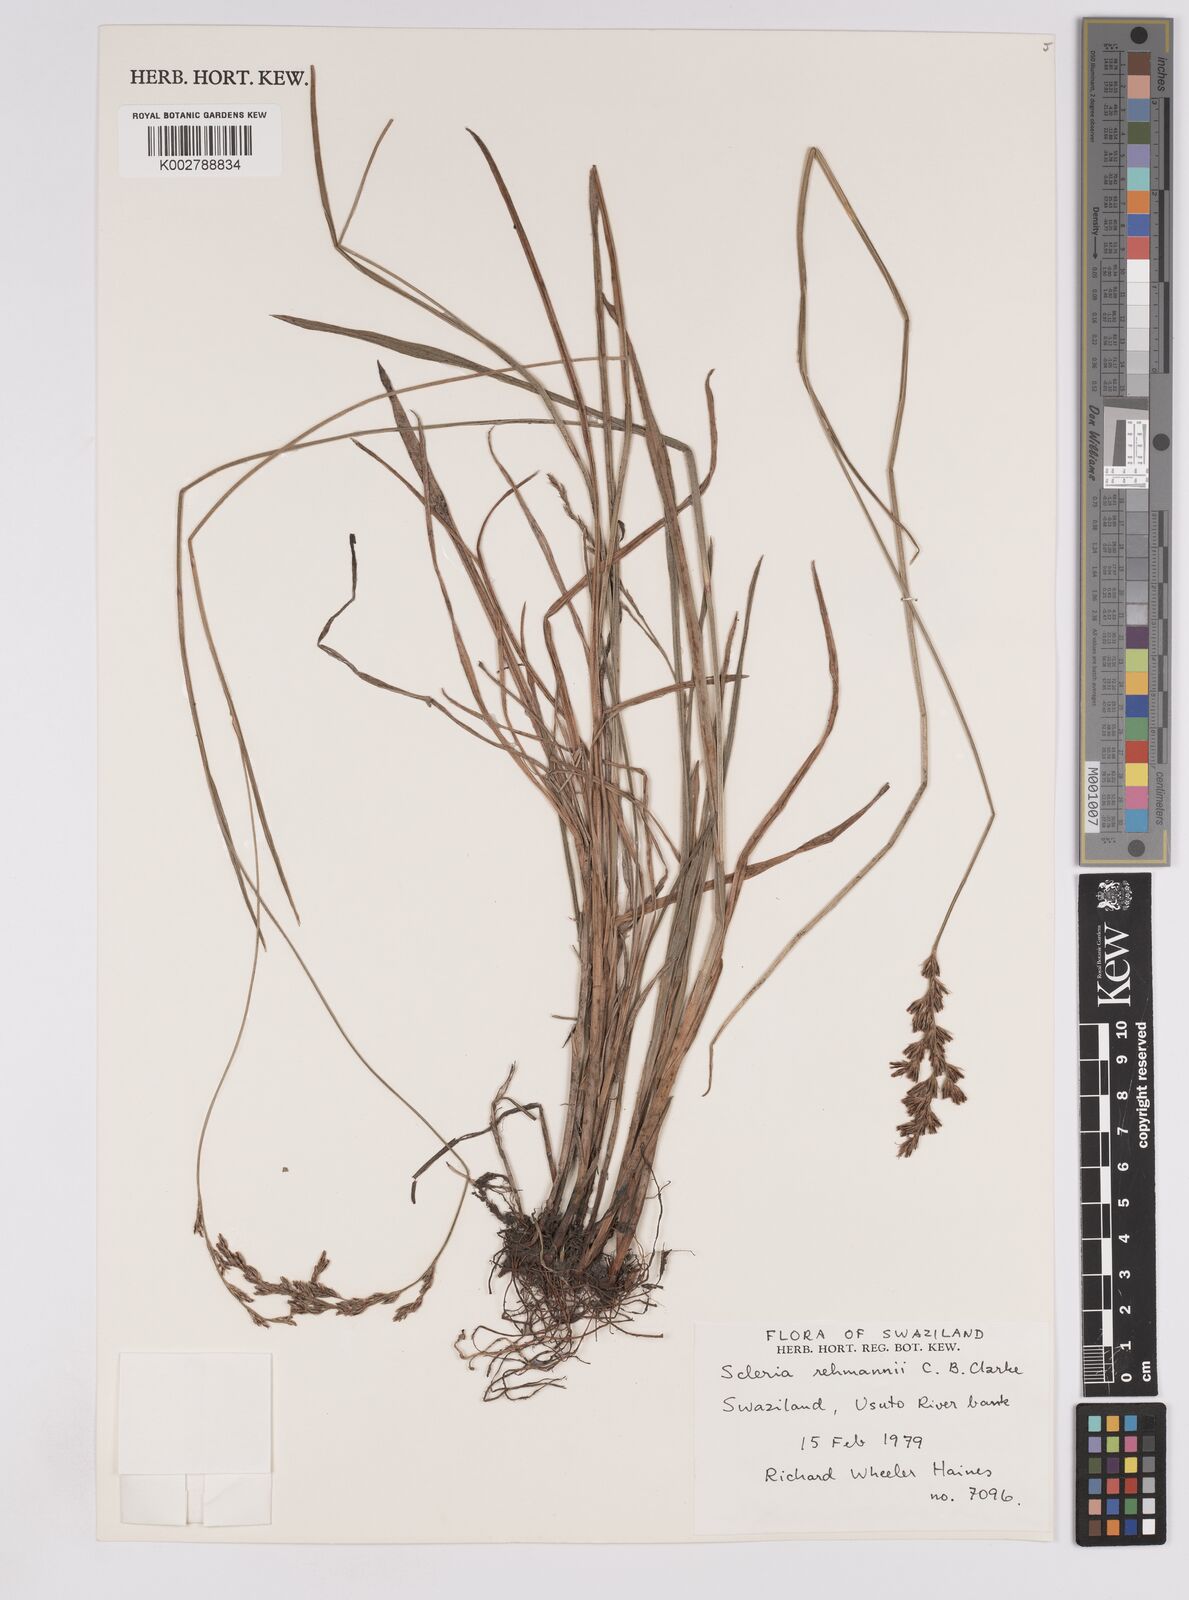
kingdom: Plantae
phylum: Tracheophyta
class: Liliopsida
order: Poales
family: Cyperaceae
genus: Scleria
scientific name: Scleria rehmannii
